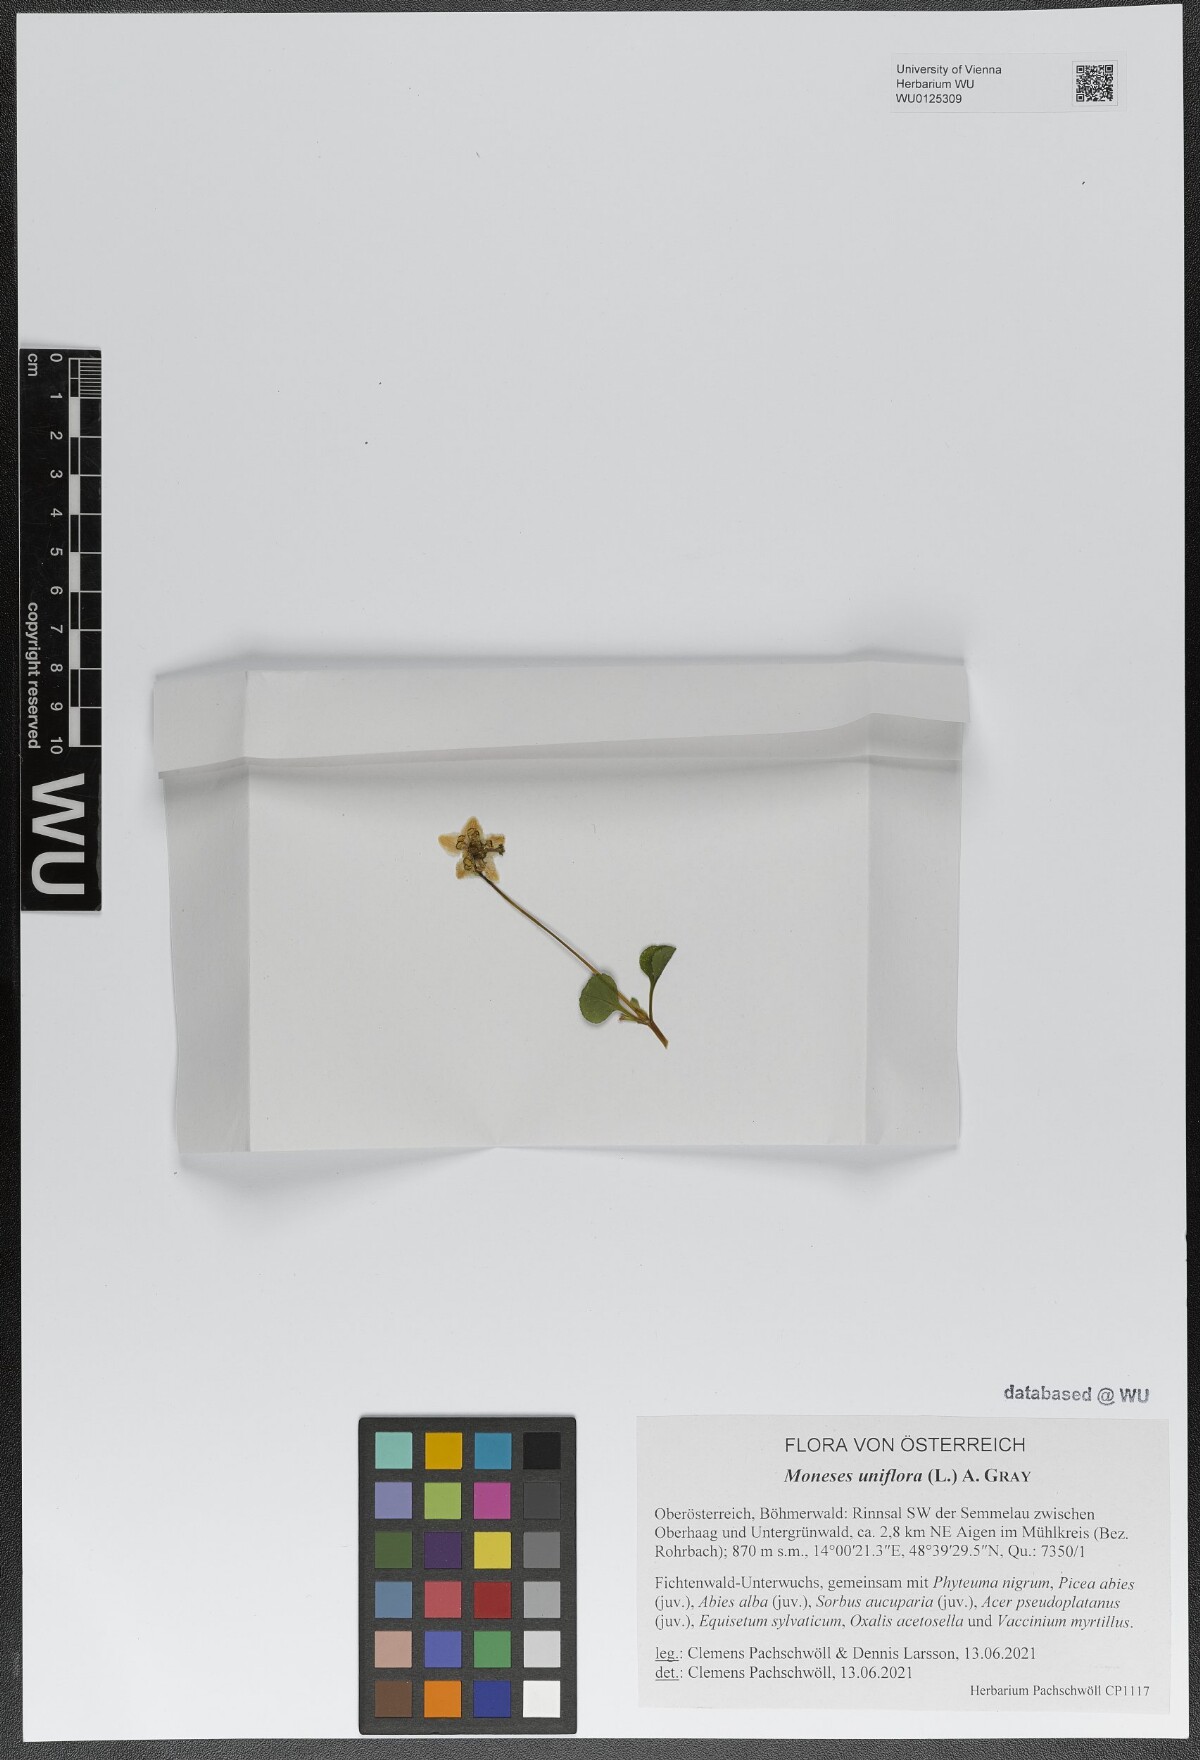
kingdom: Plantae
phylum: Tracheophyta
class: Magnoliopsida
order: Ericales
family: Ericaceae
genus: Moneses
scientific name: Moneses uniflora
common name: One-flowered wintergreen
